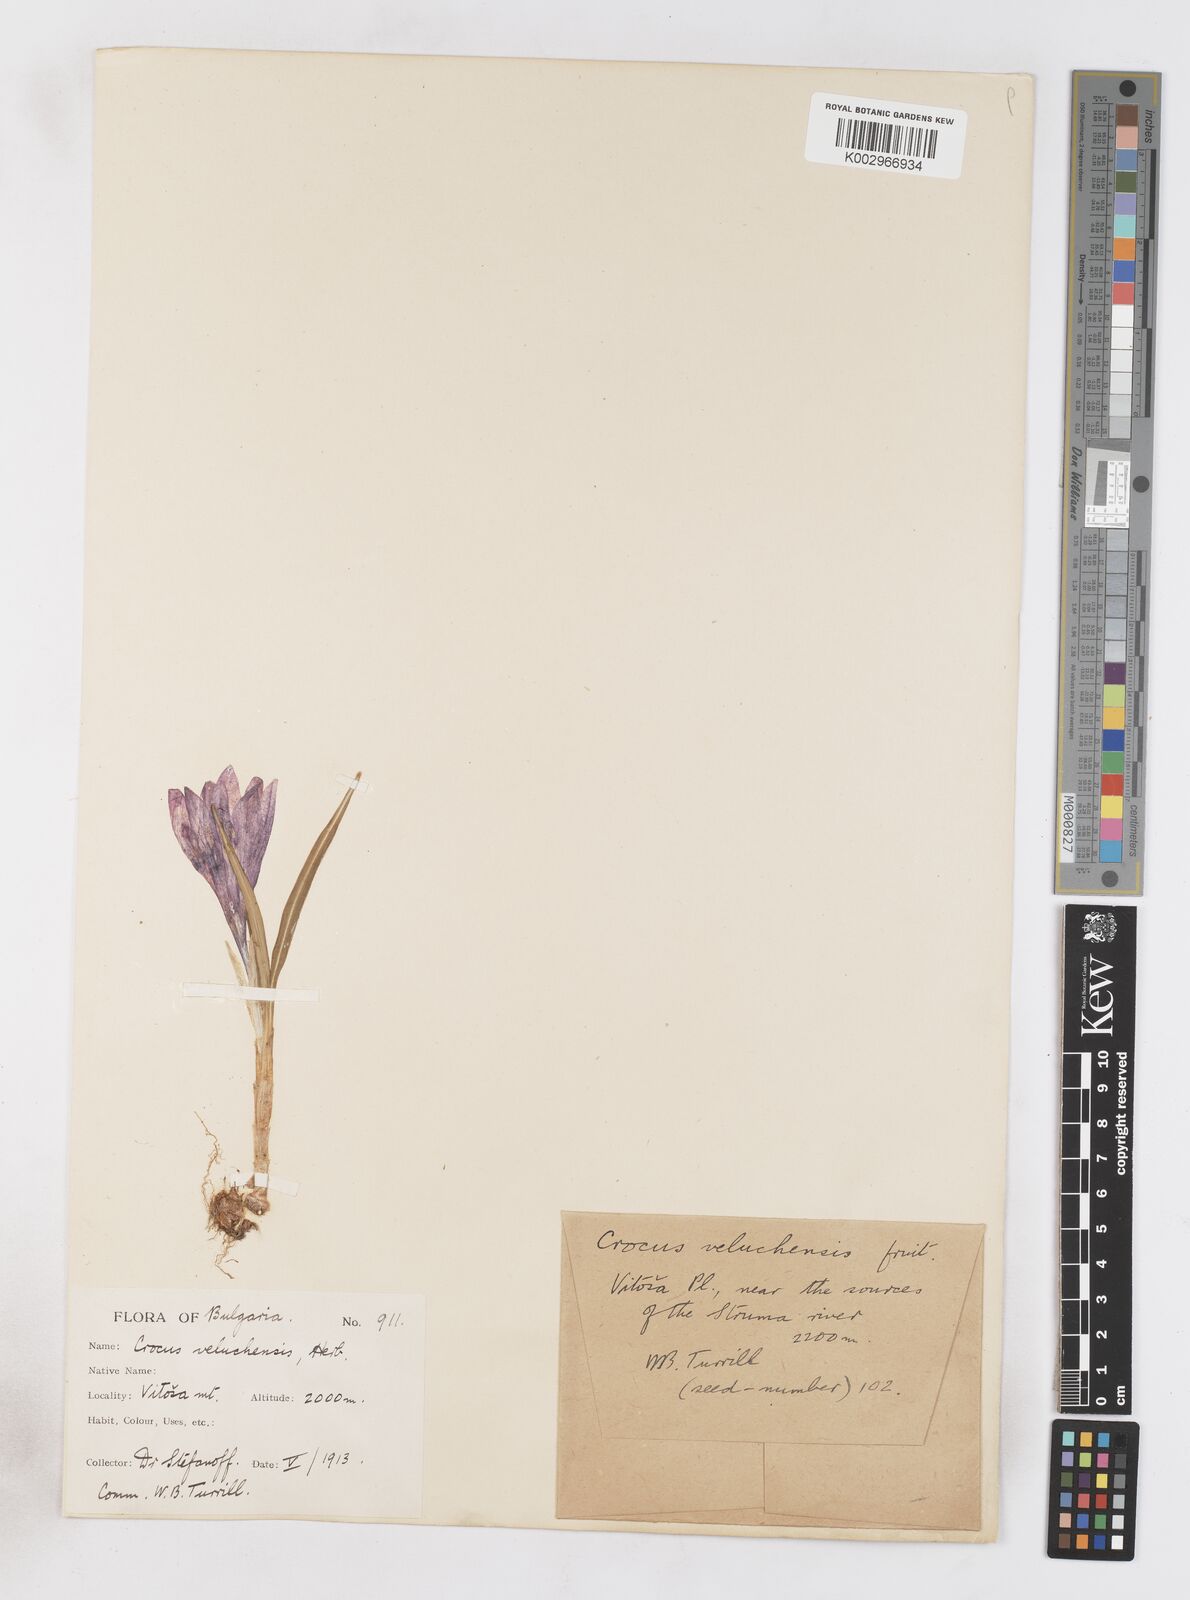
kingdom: Plantae
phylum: Tracheophyta
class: Liliopsida
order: Asparagales
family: Iridaceae
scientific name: Iridaceae
